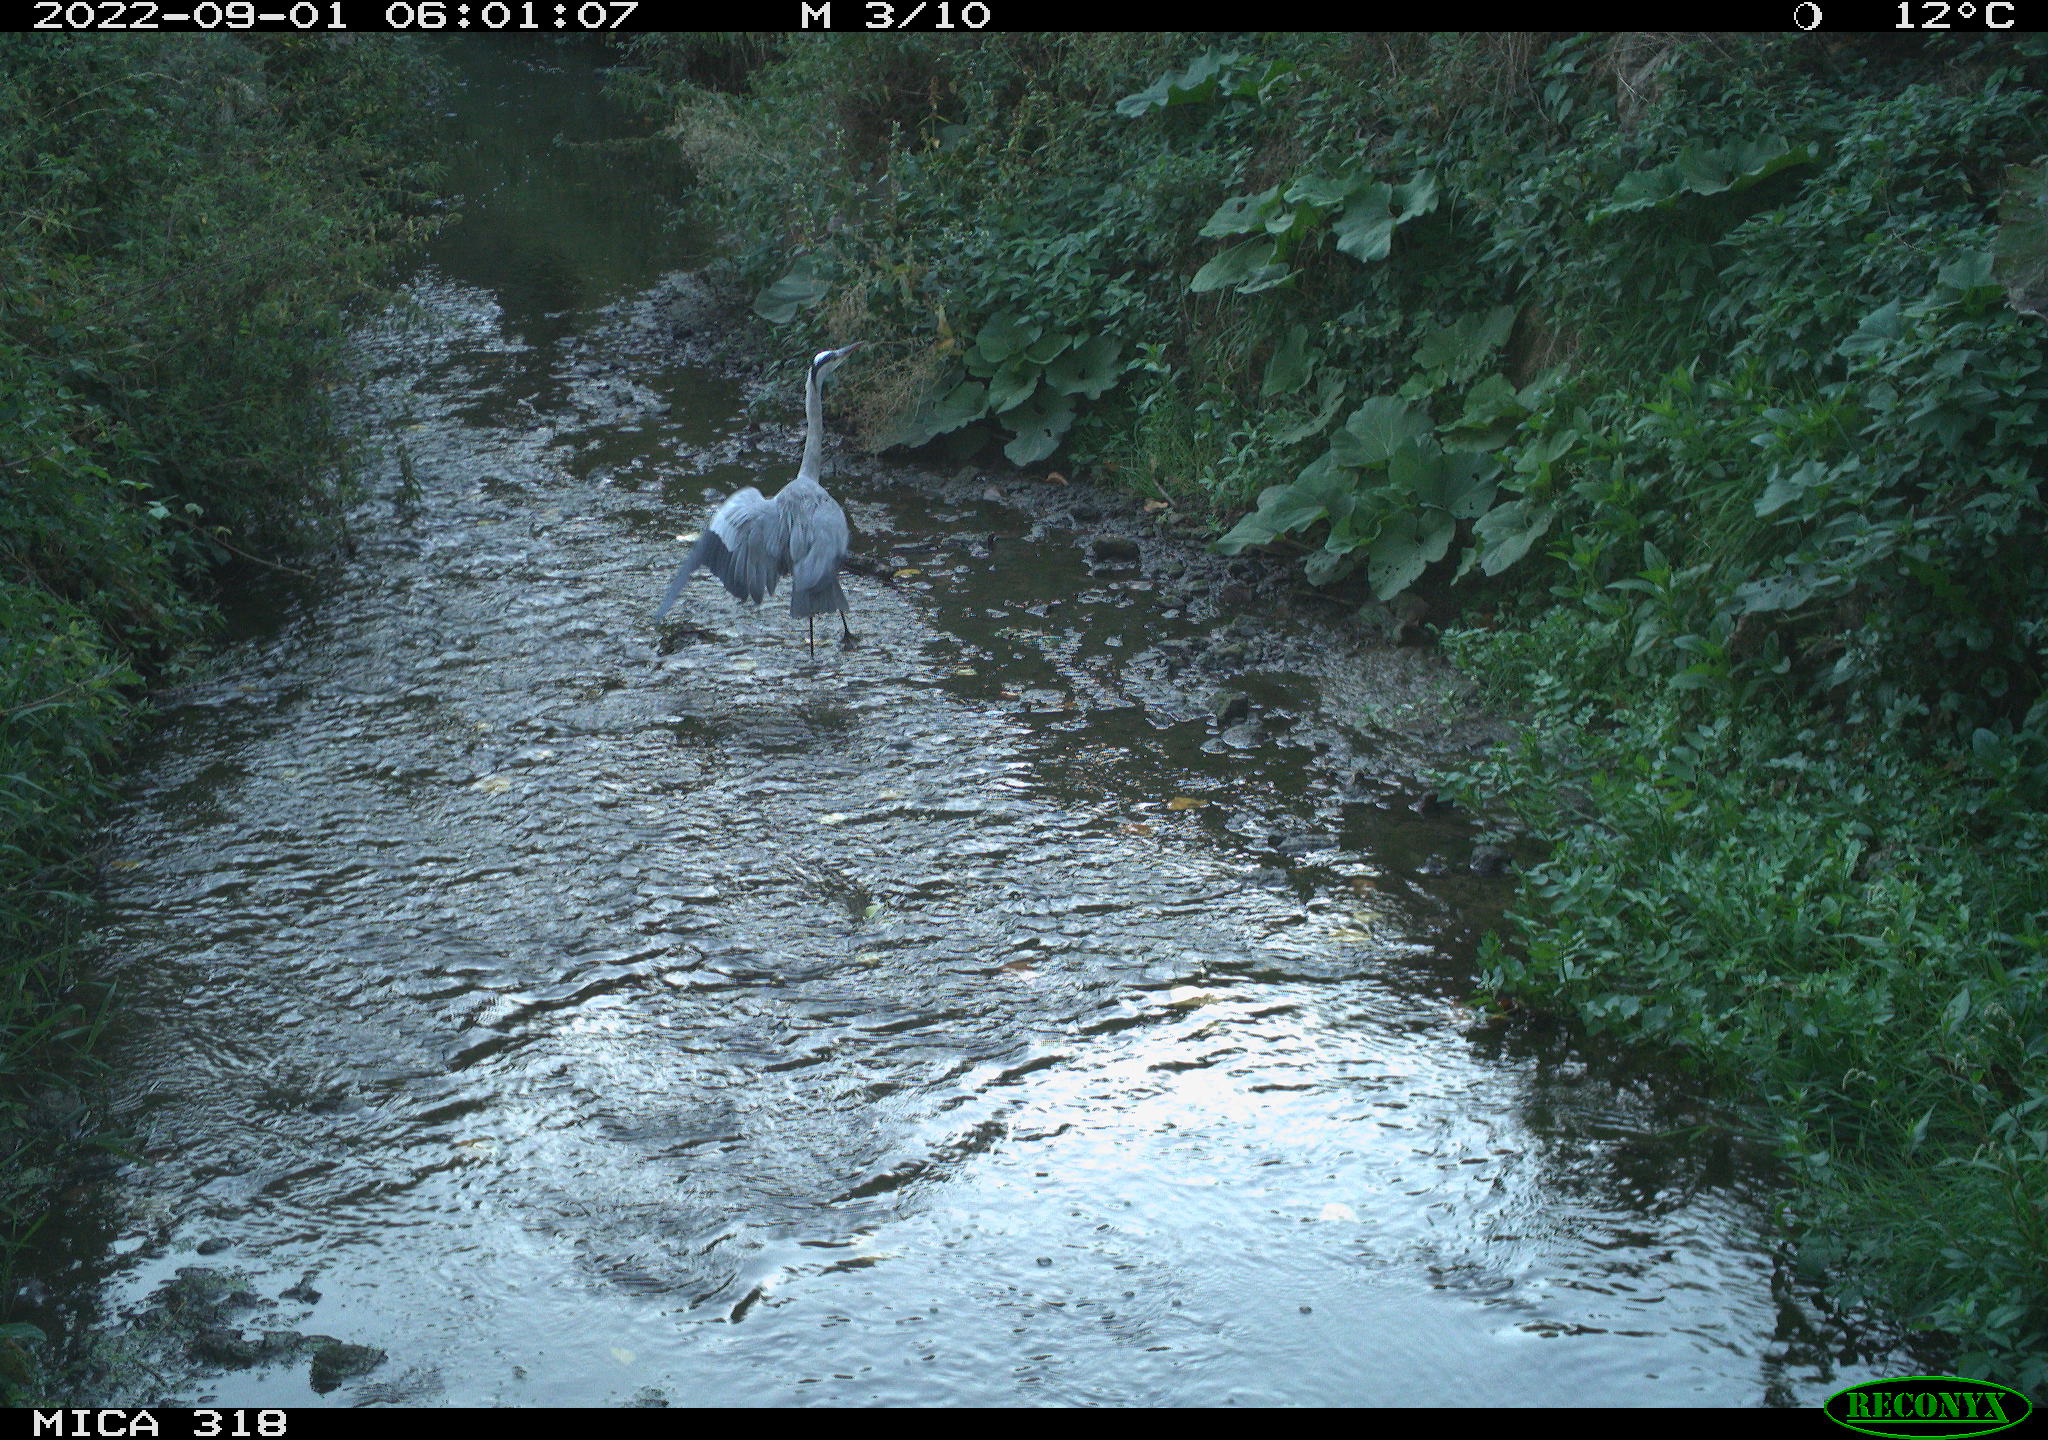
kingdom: Animalia
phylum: Chordata
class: Aves
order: Pelecaniformes
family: Ardeidae
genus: Ardea
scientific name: Ardea cinerea
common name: Grey heron
